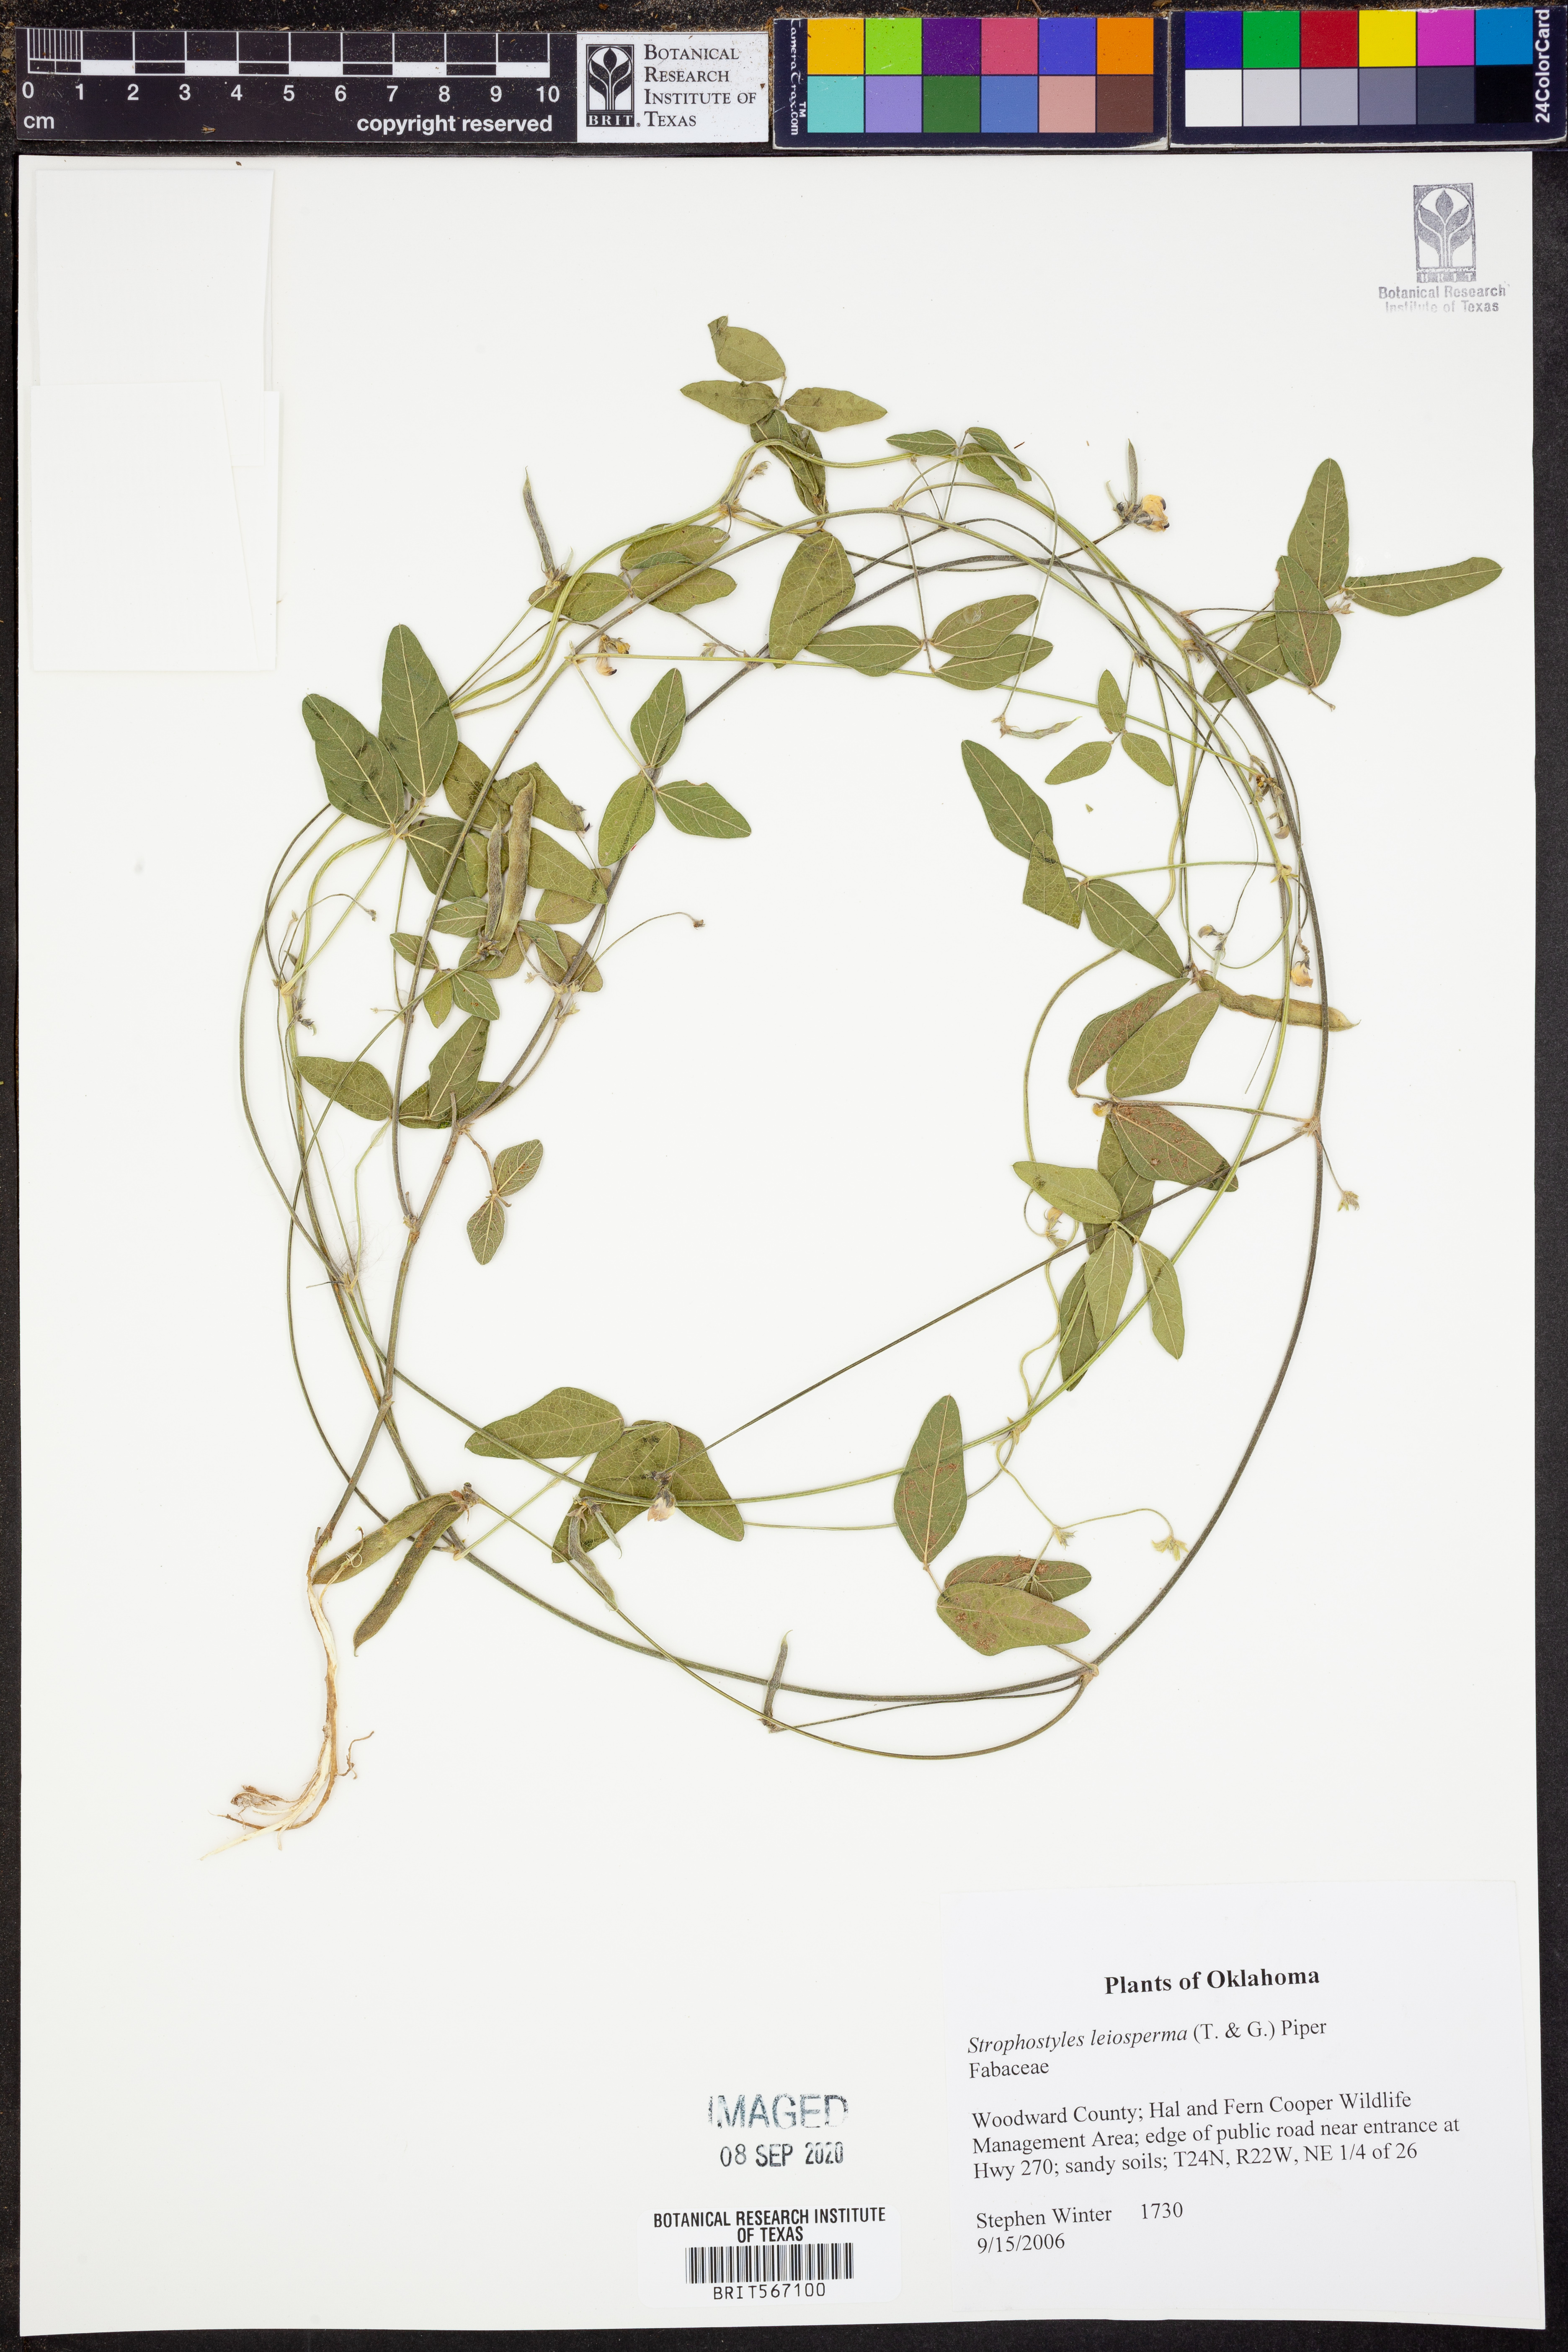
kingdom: Plantae
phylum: Tracheophyta
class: Magnoliopsida
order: Fabales
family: Fabaceae
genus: Strophostyles
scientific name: Strophostyles leiosperma
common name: Smooth-seed wild bean
